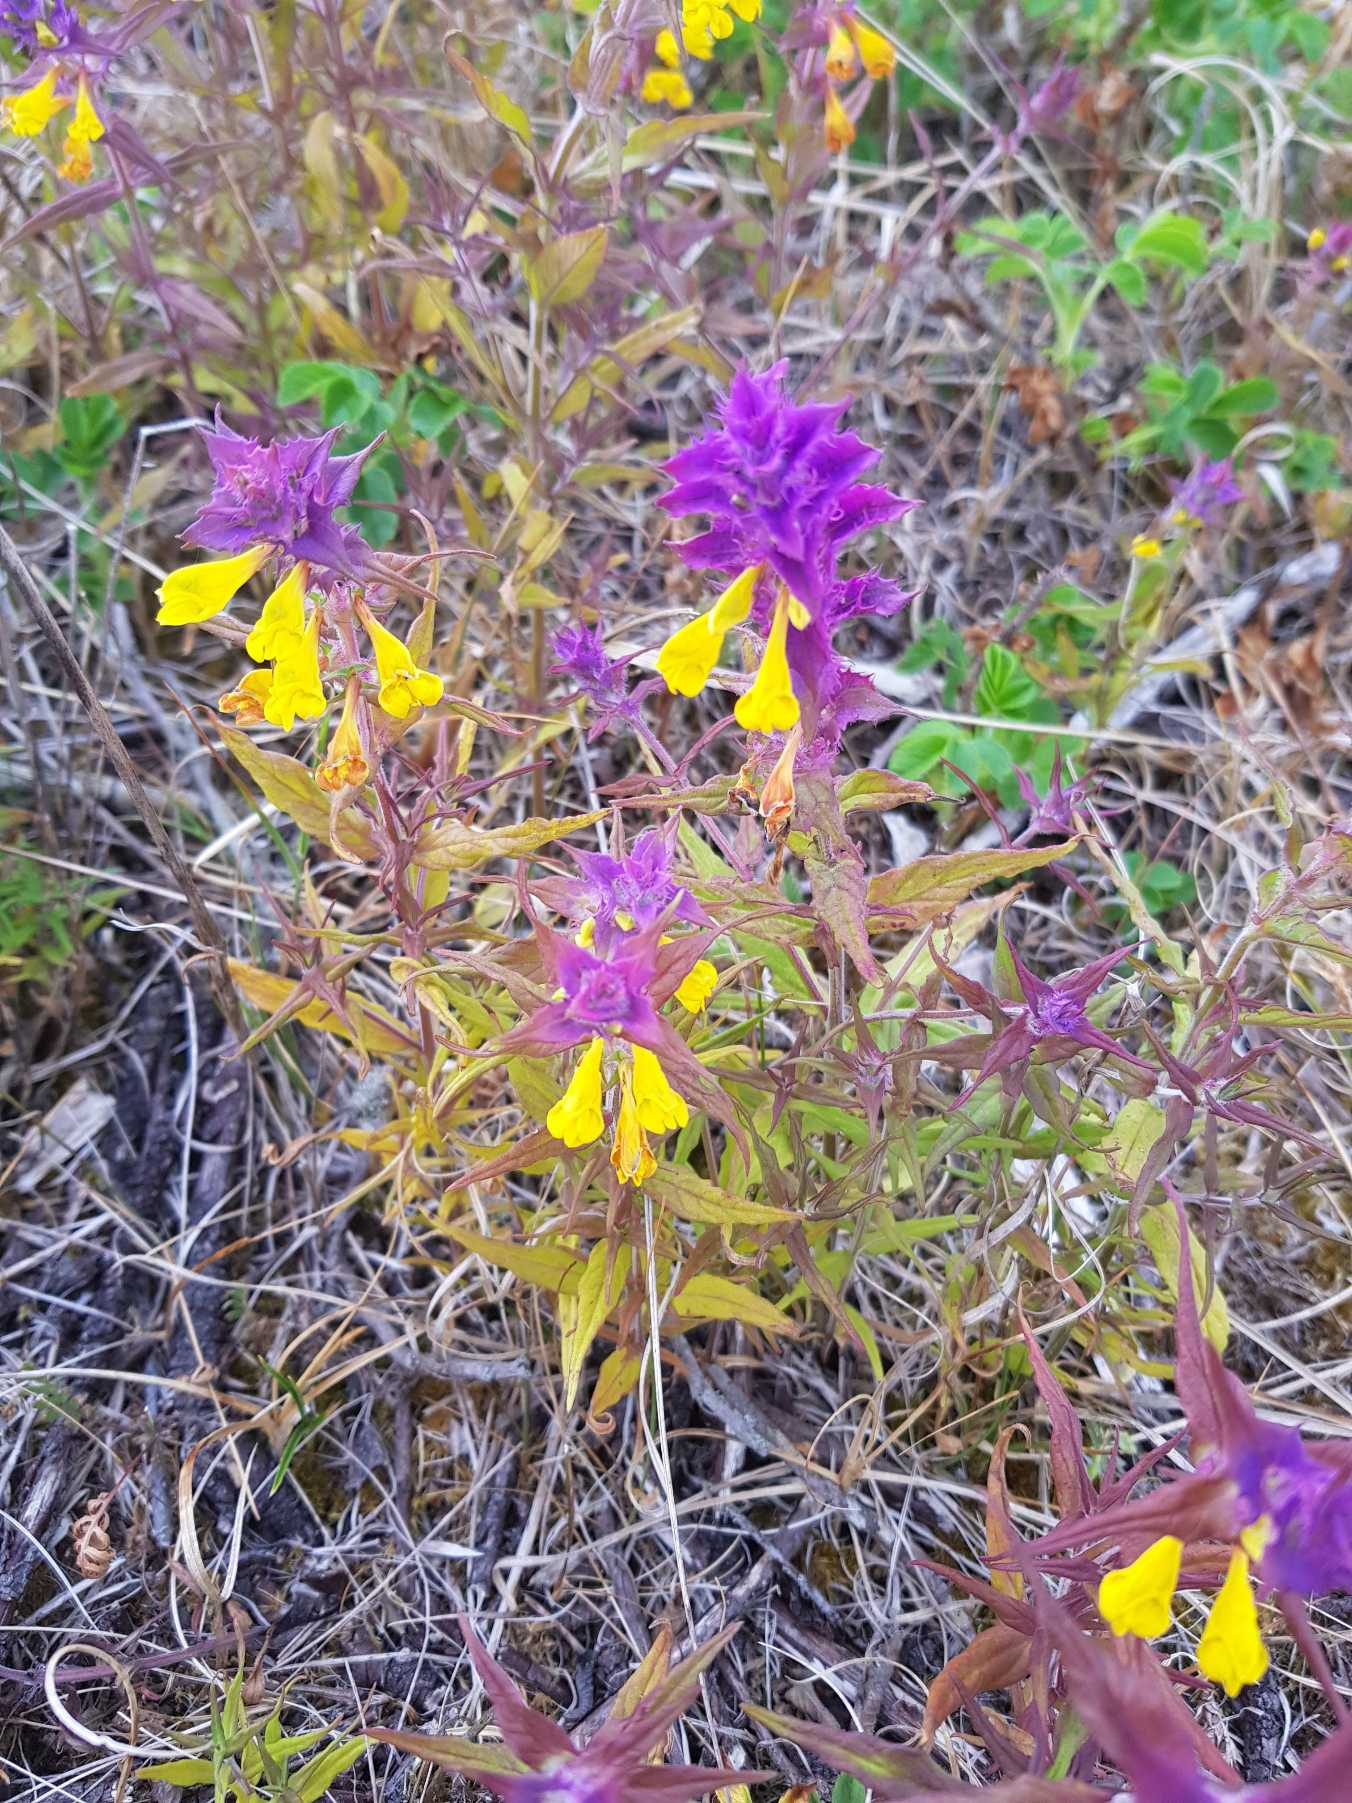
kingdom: Plantae
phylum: Tracheophyta
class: Magnoliopsida
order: Lamiales
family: Orobanchaceae
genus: Melampyrum
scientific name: Melampyrum nemorosum
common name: Blåtoppet kohvede
